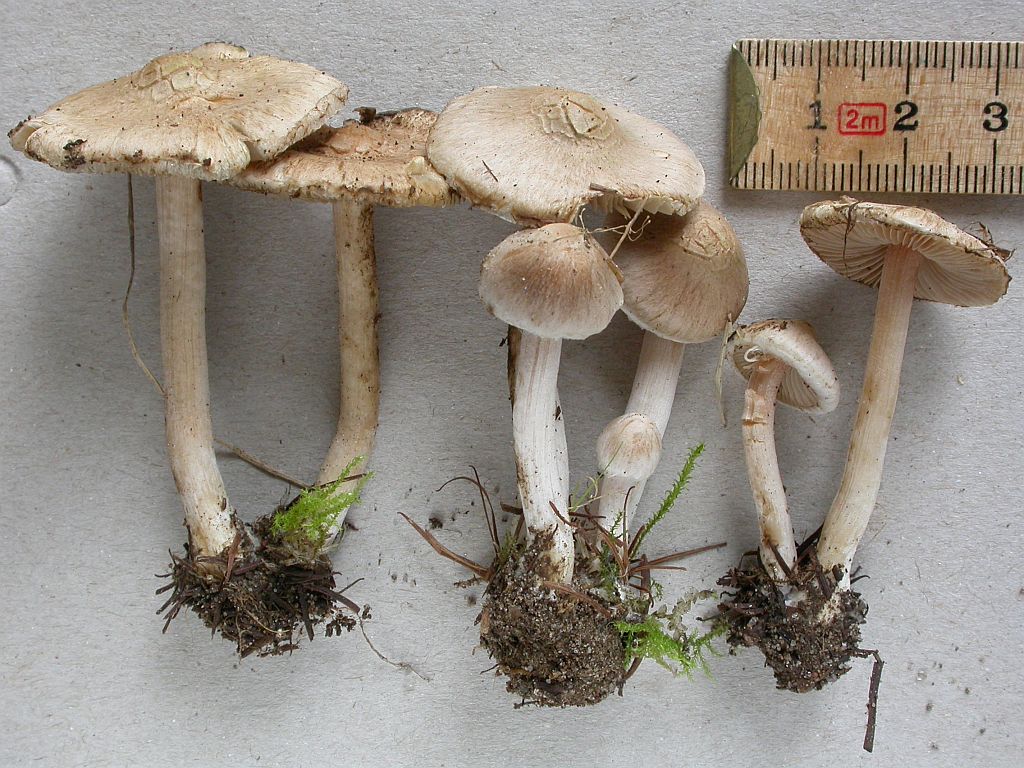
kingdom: Fungi
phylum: Basidiomycota
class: Agaricomycetes
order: Agaricales
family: Inocybaceae
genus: Inocybe
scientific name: Inocybe sindonia
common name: bleg trævlhat
